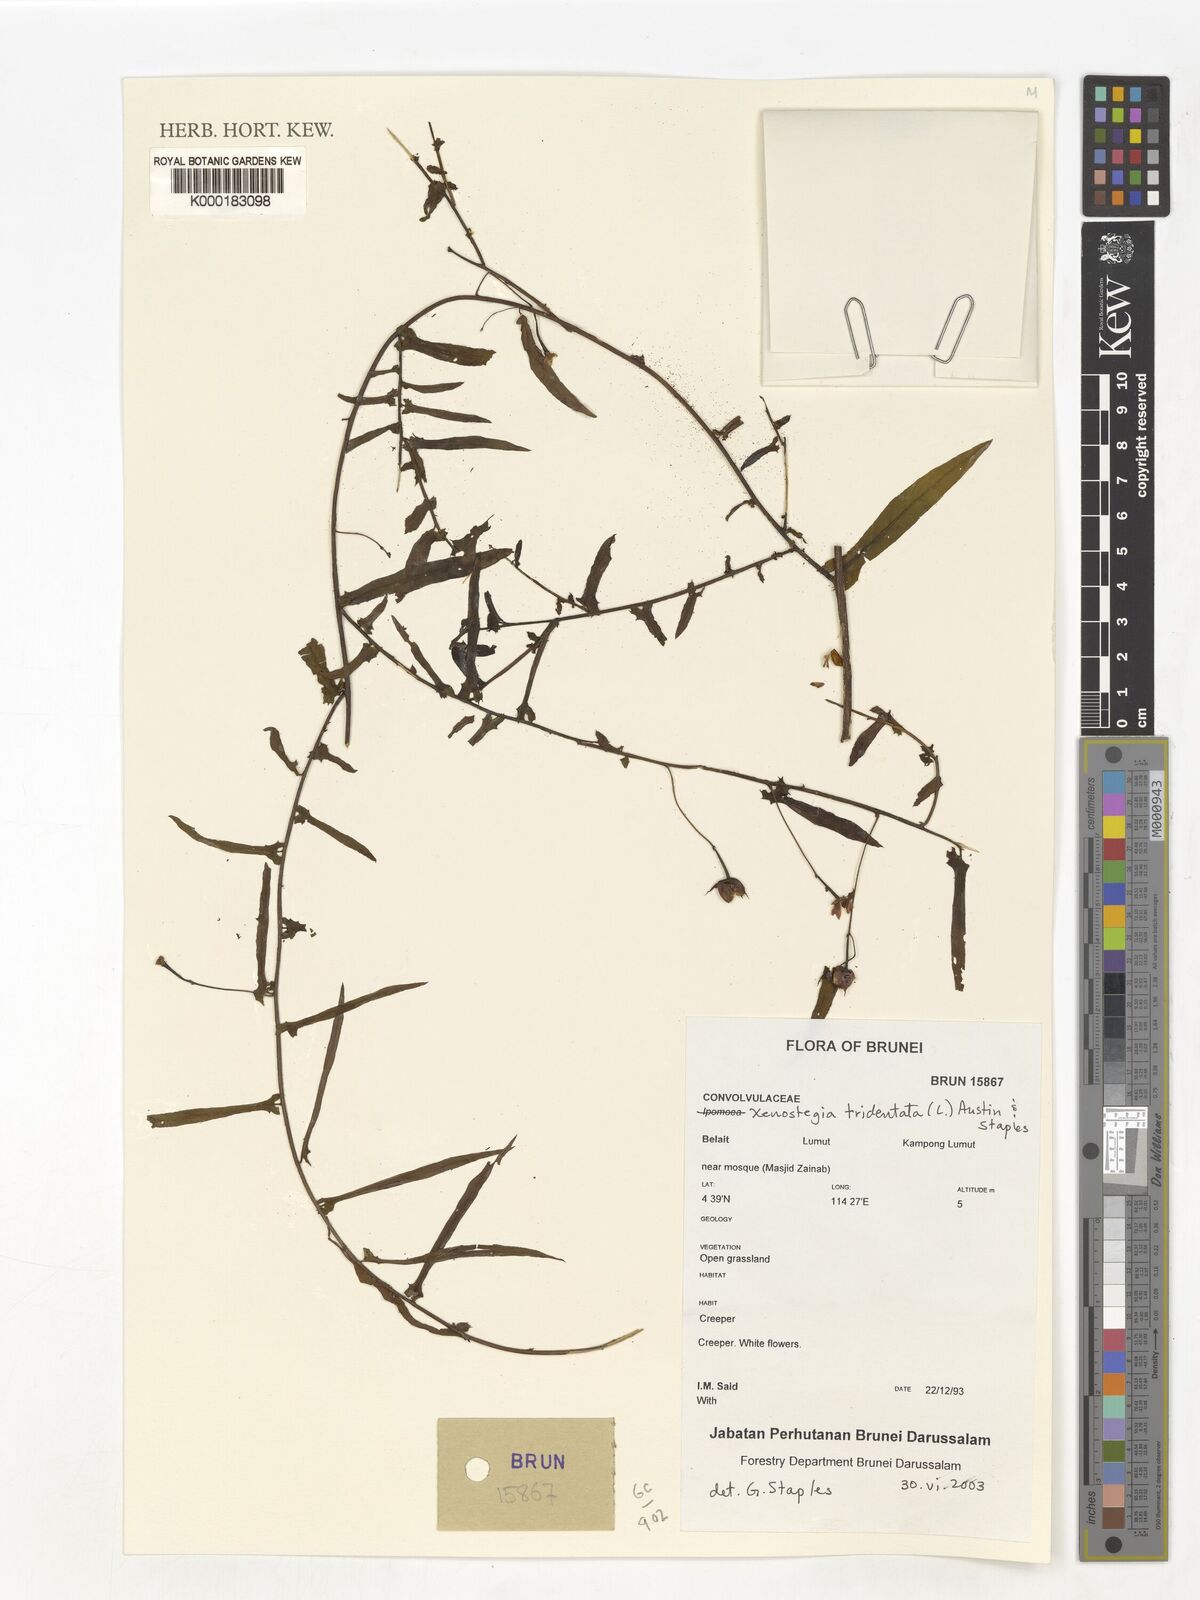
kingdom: Plantae
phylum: Tracheophyta
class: Magnoliopsida
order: Solanales
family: Convolvulaceae
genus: Xenostegia
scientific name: Xenostegia tridentata
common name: African morningvine
